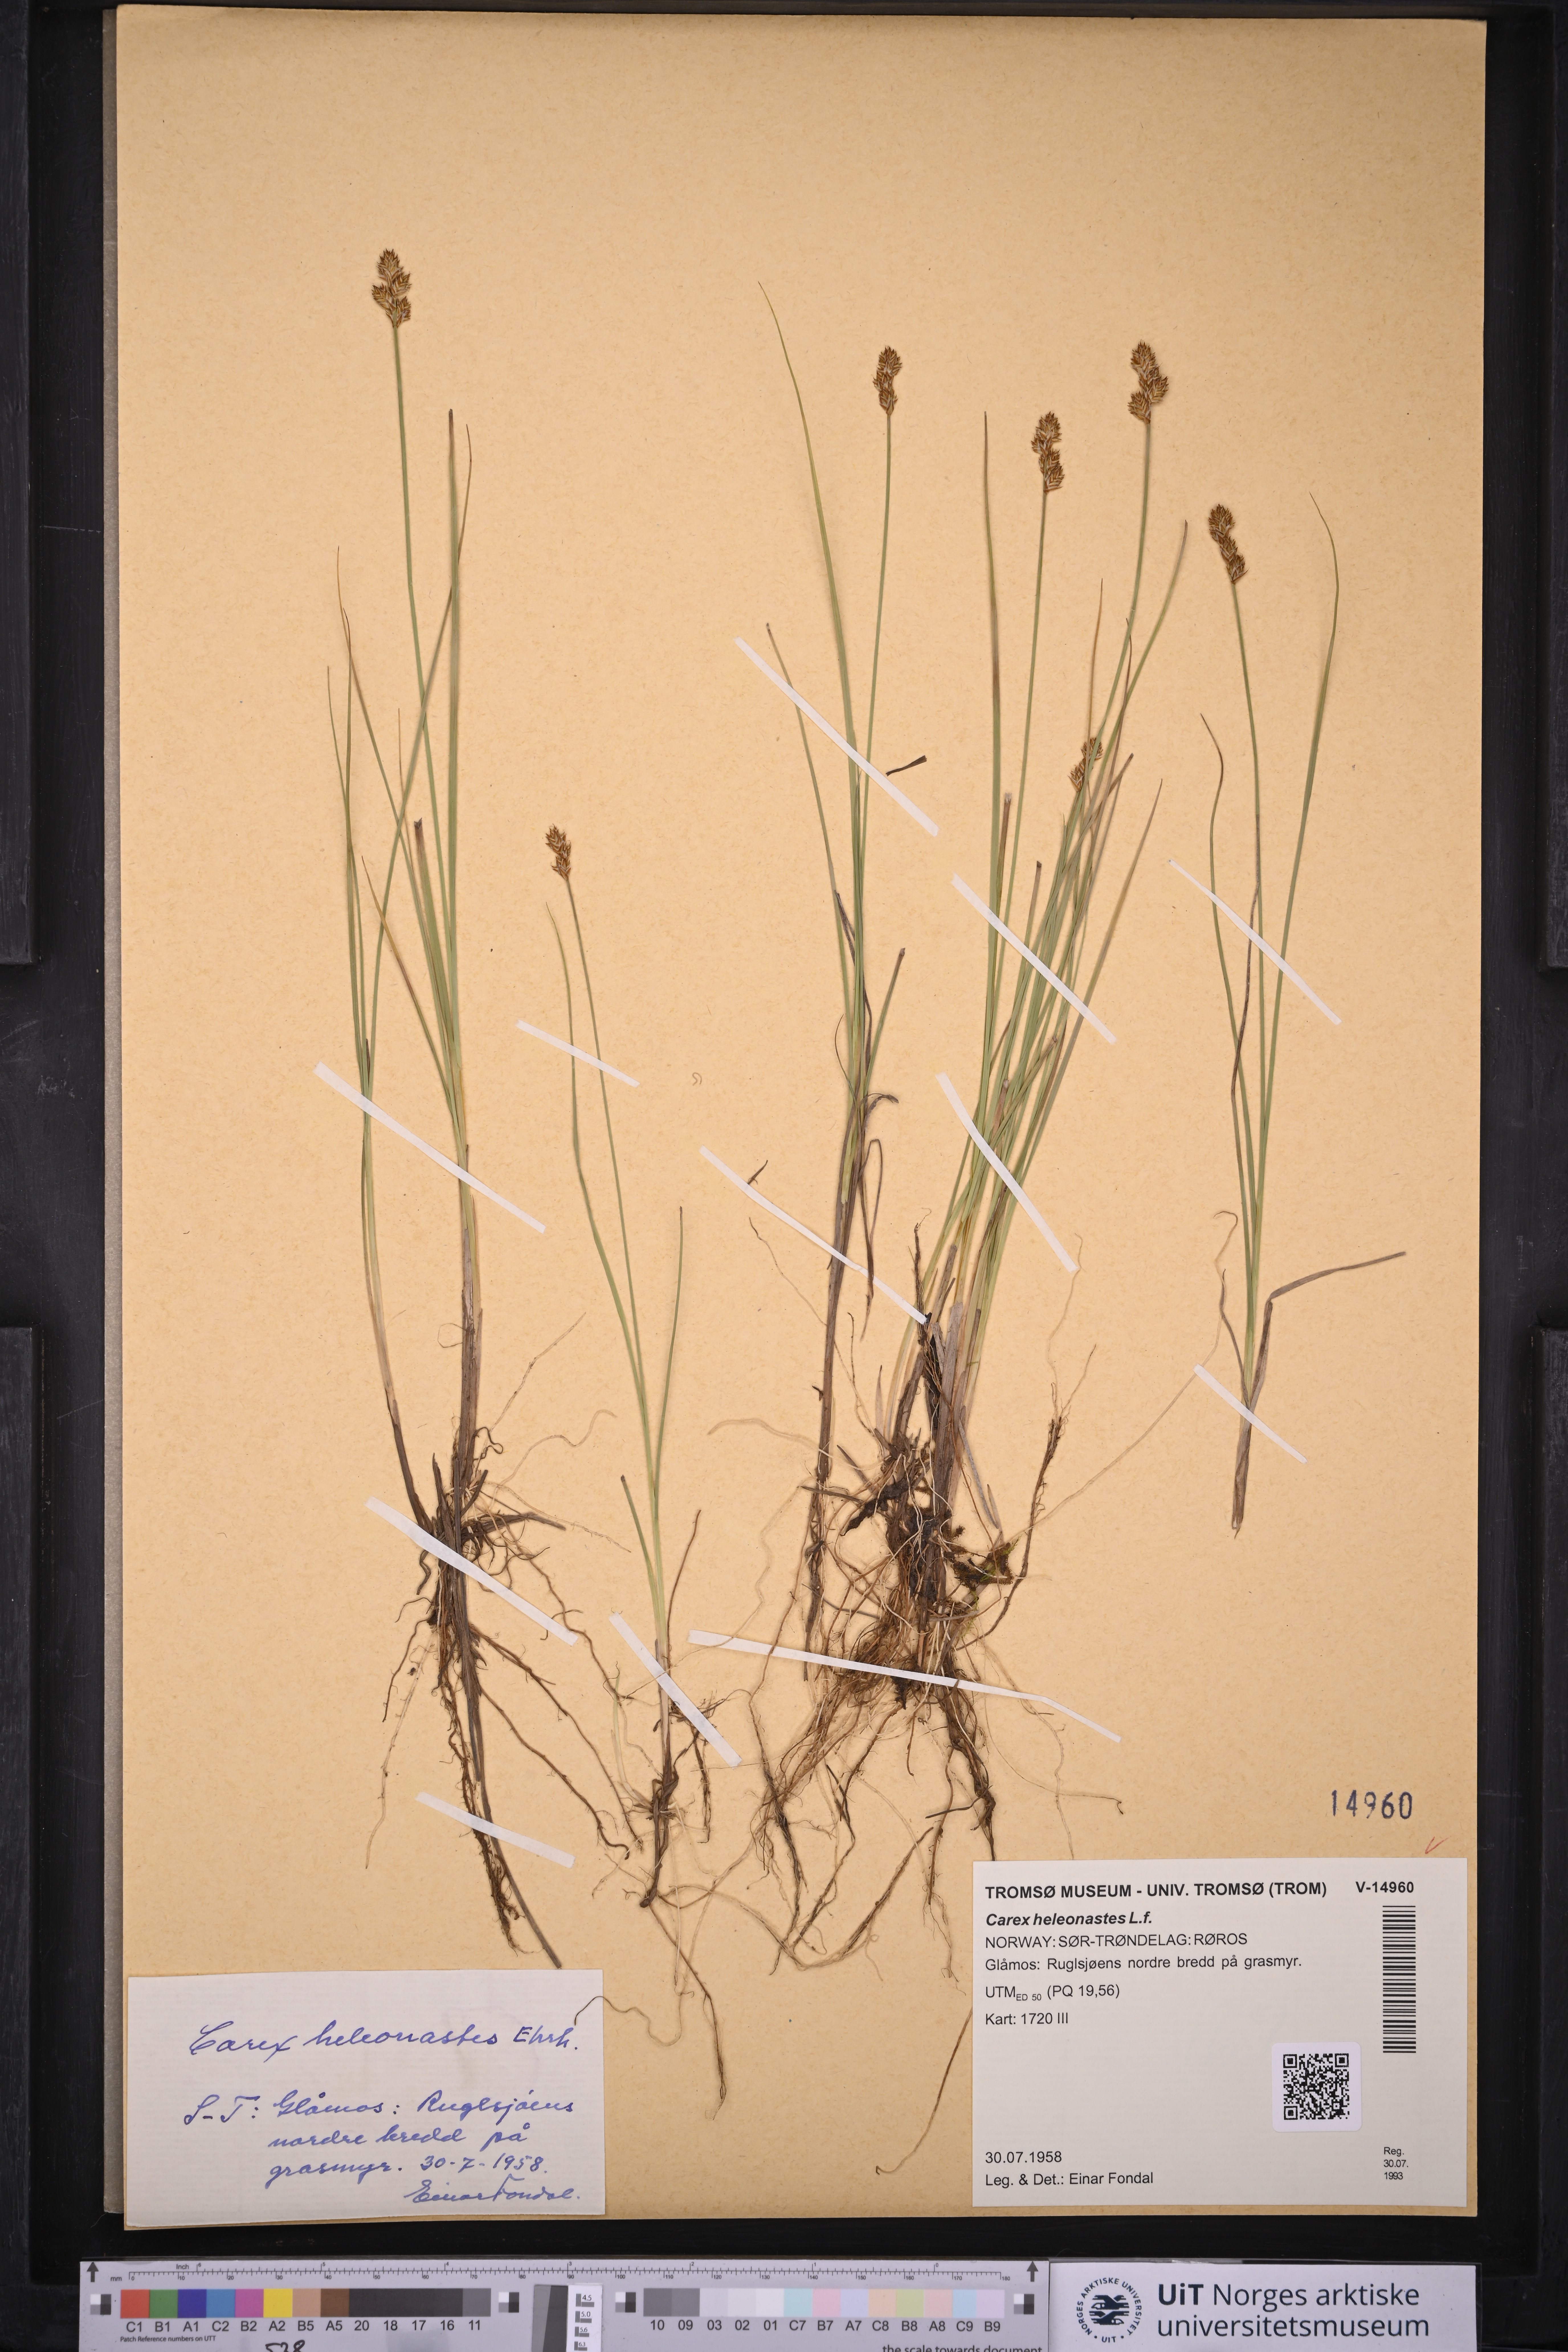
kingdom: Plantae
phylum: Tracheophyta
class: Liliopsida
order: Poales
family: Cyperaceae
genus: Carex
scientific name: Carex heleonastes
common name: Hudson bay sedge
